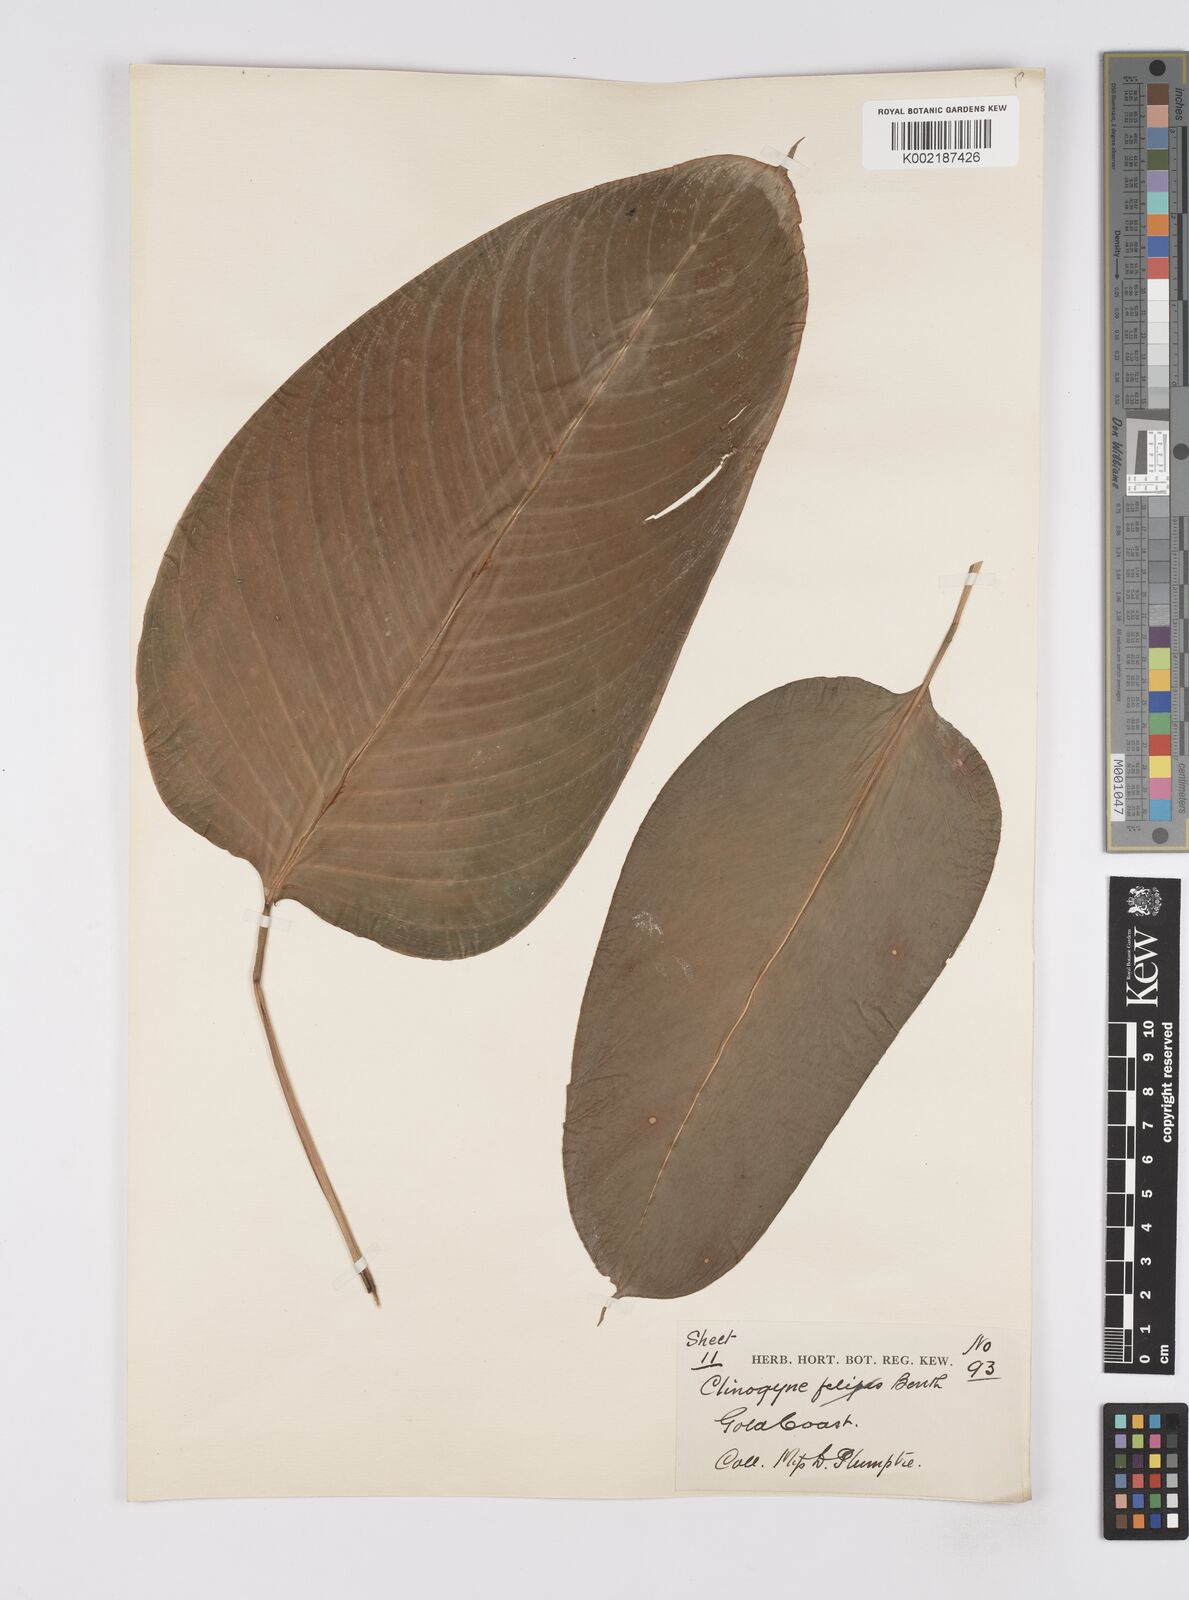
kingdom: Plantae
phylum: Tracheophyta
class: Liliopsida
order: Zingiberales
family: Marantaceae
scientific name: Marantaceae
